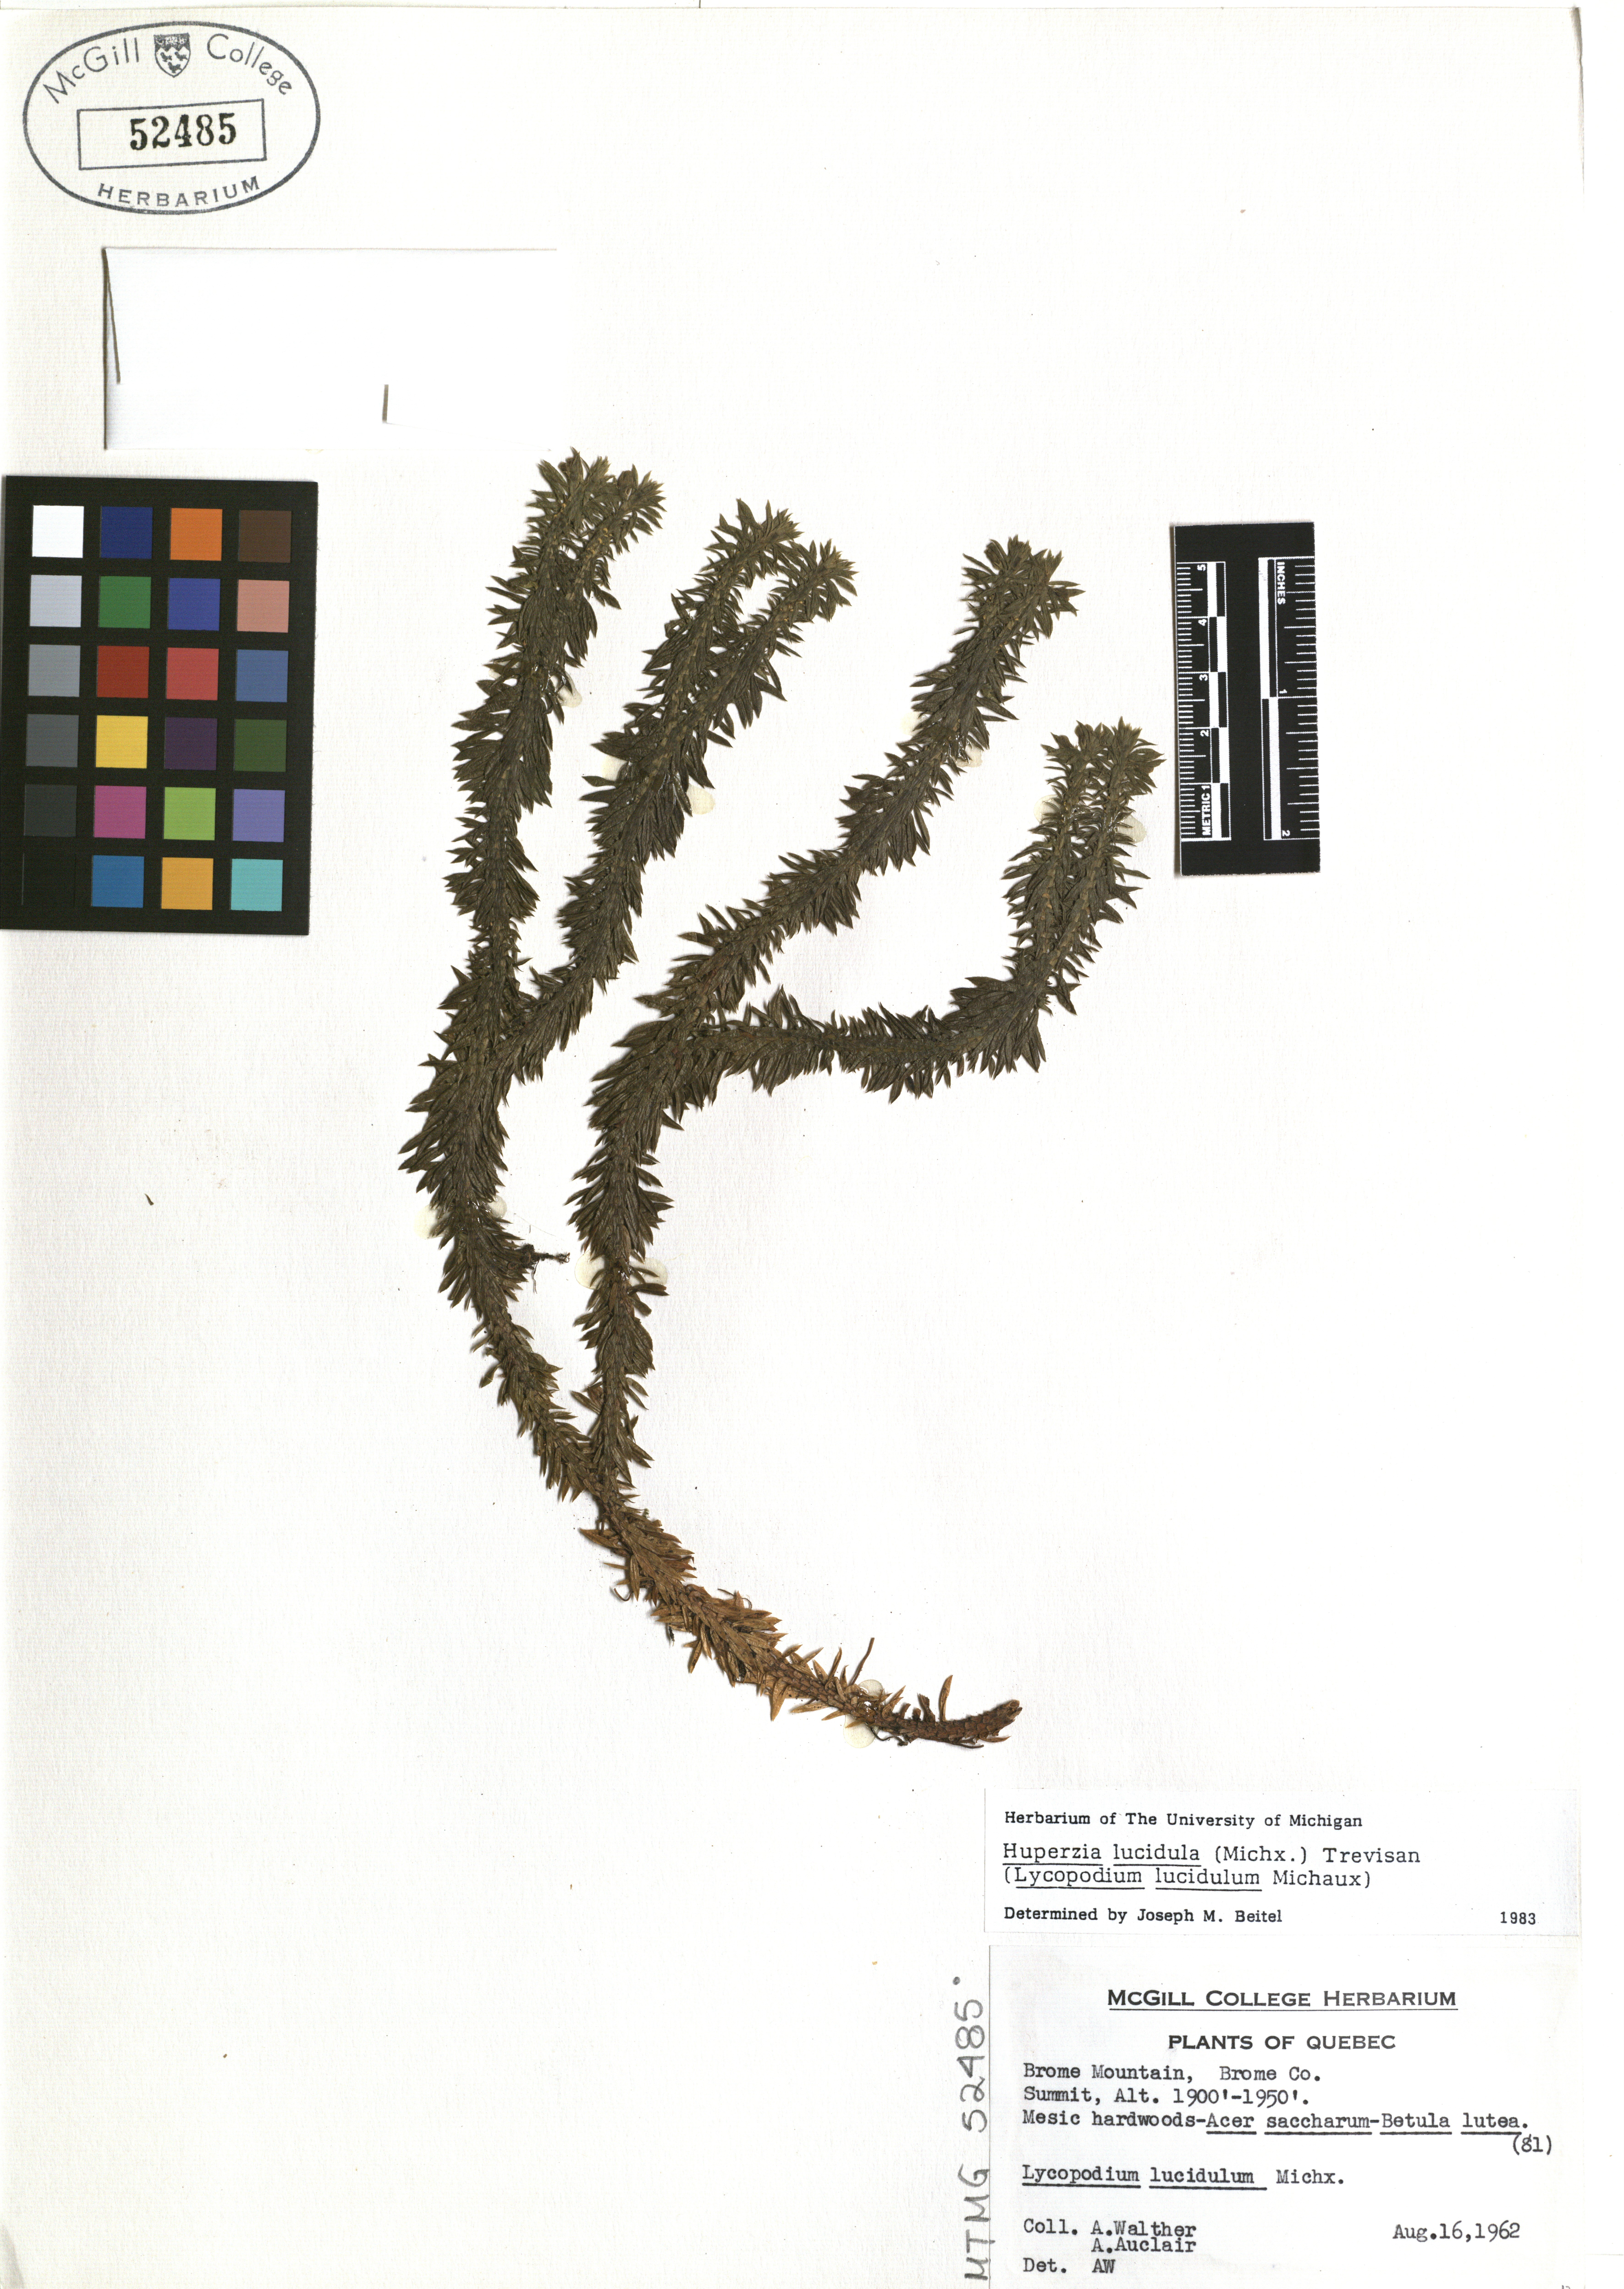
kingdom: Plantae
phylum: Tracheophyta
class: Lycopodiopsida
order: Lycopodiales
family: Lycopodiaceae
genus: Huperzia
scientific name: Huperzia lucidula
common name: Shining clubmoss
